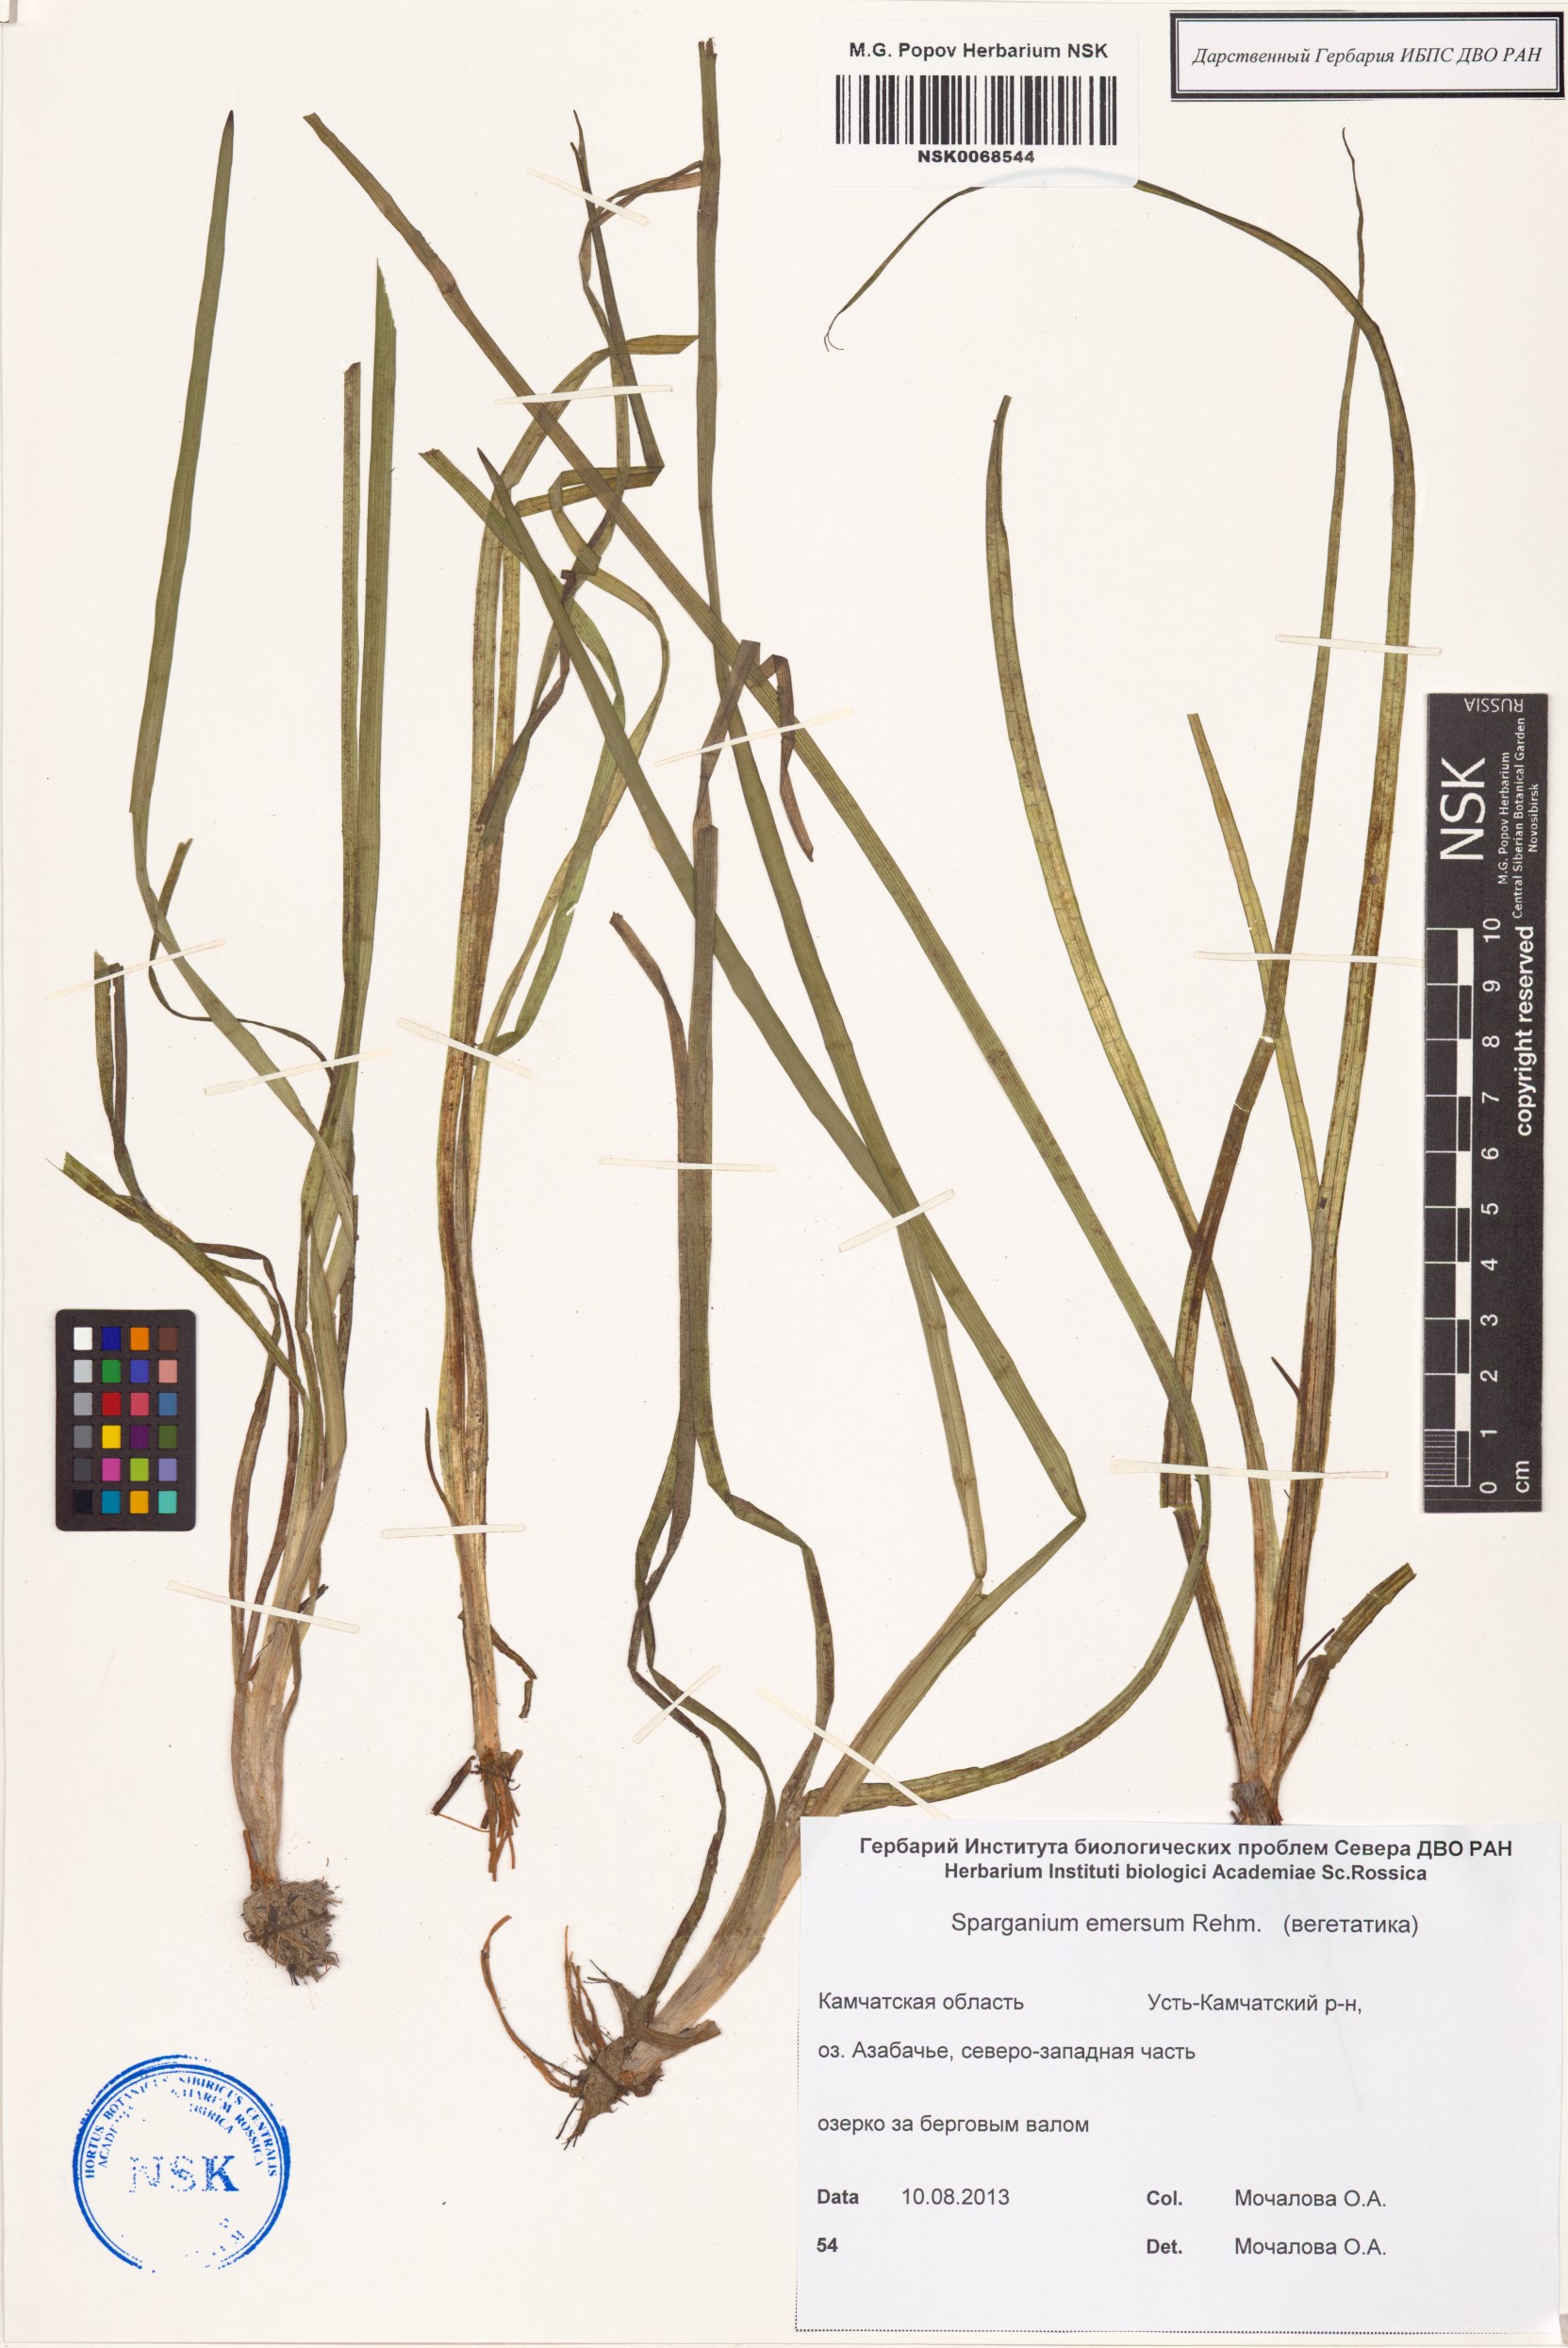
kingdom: Plantae
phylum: Tracheophyta
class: Liliopsida
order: Poales
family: Typhaceae
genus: Sparganium
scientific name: Sparganium emersum
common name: Unbranched bur-reed
